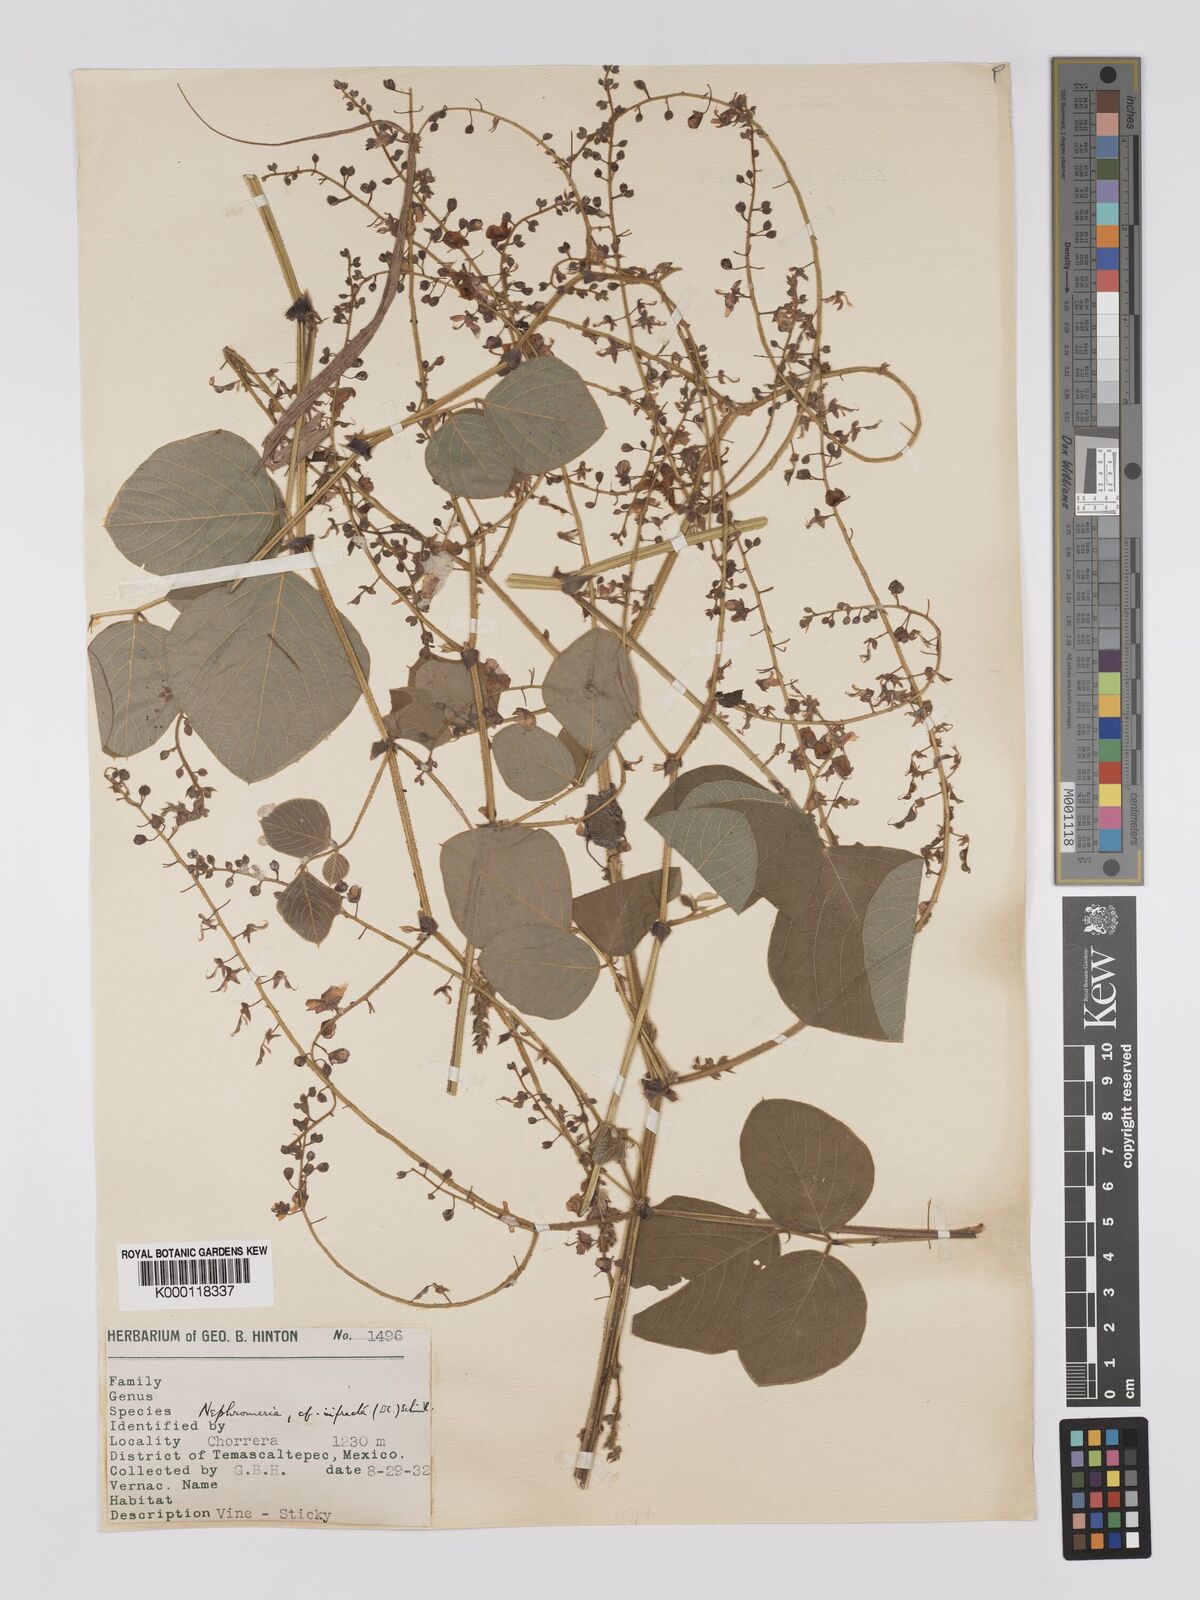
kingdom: Plantae
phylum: Tracheophyta
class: Magnoliopsida
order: Fabales
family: Fabaceae
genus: Desmodium
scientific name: Desmodium infractum
